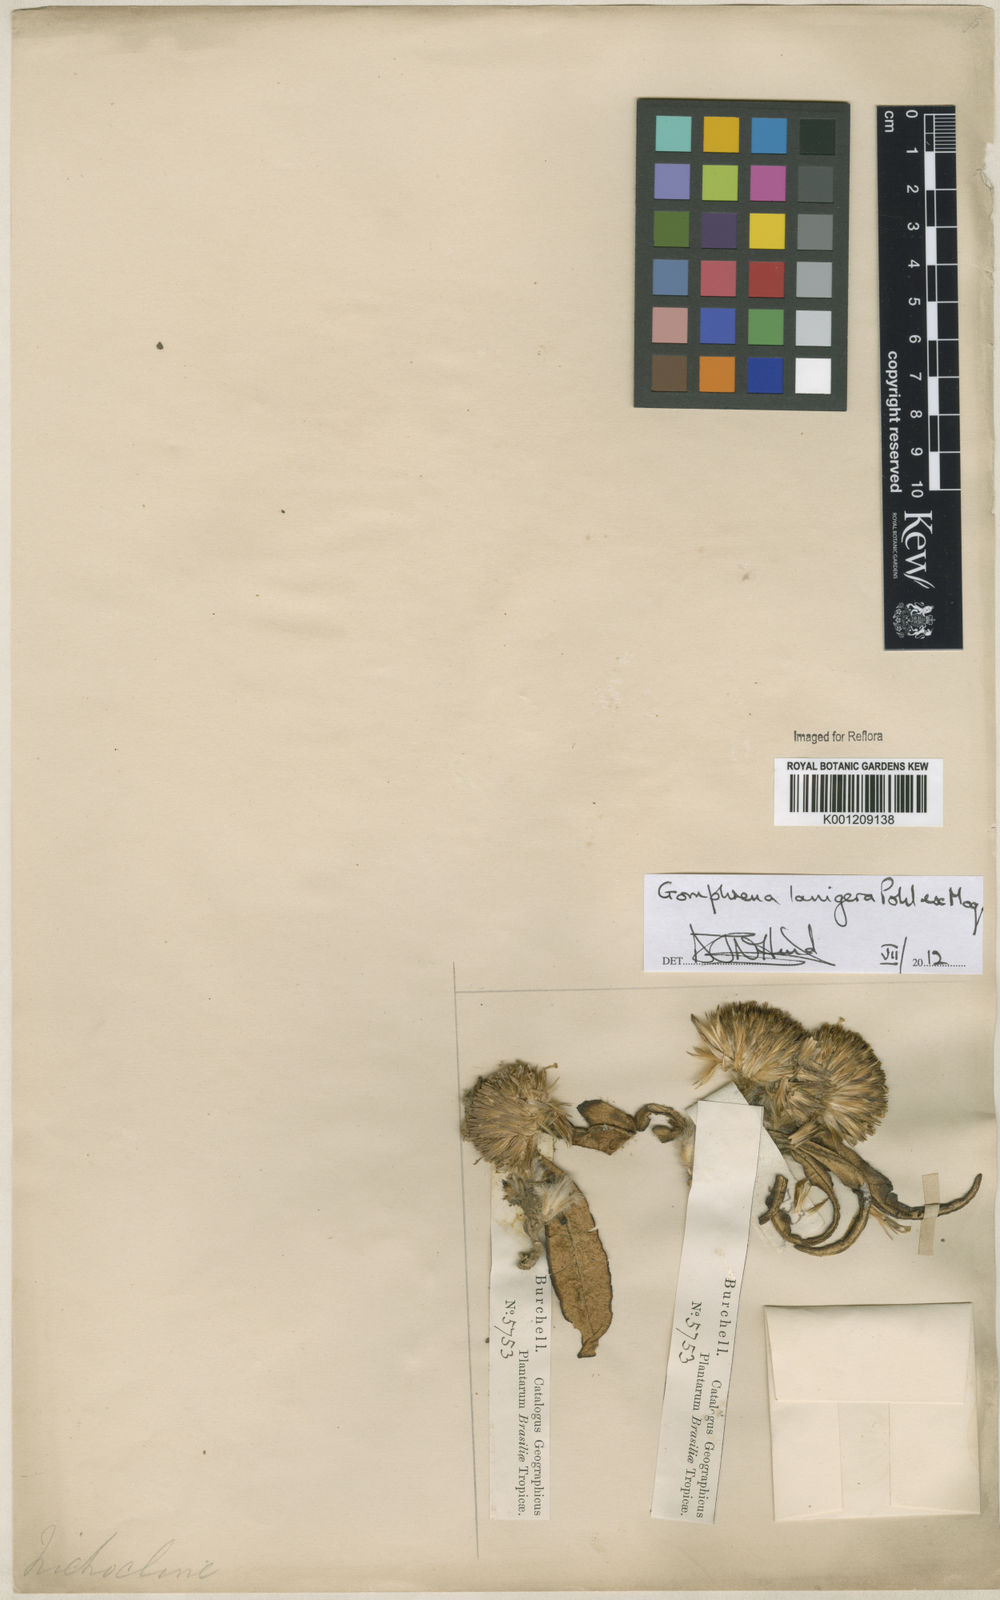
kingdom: Plantae
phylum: Tracheophyta
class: Magnoliopsida
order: Caryophyllales
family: Amaranthaceae
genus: Gomphrena
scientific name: Gomphrena lanigera
